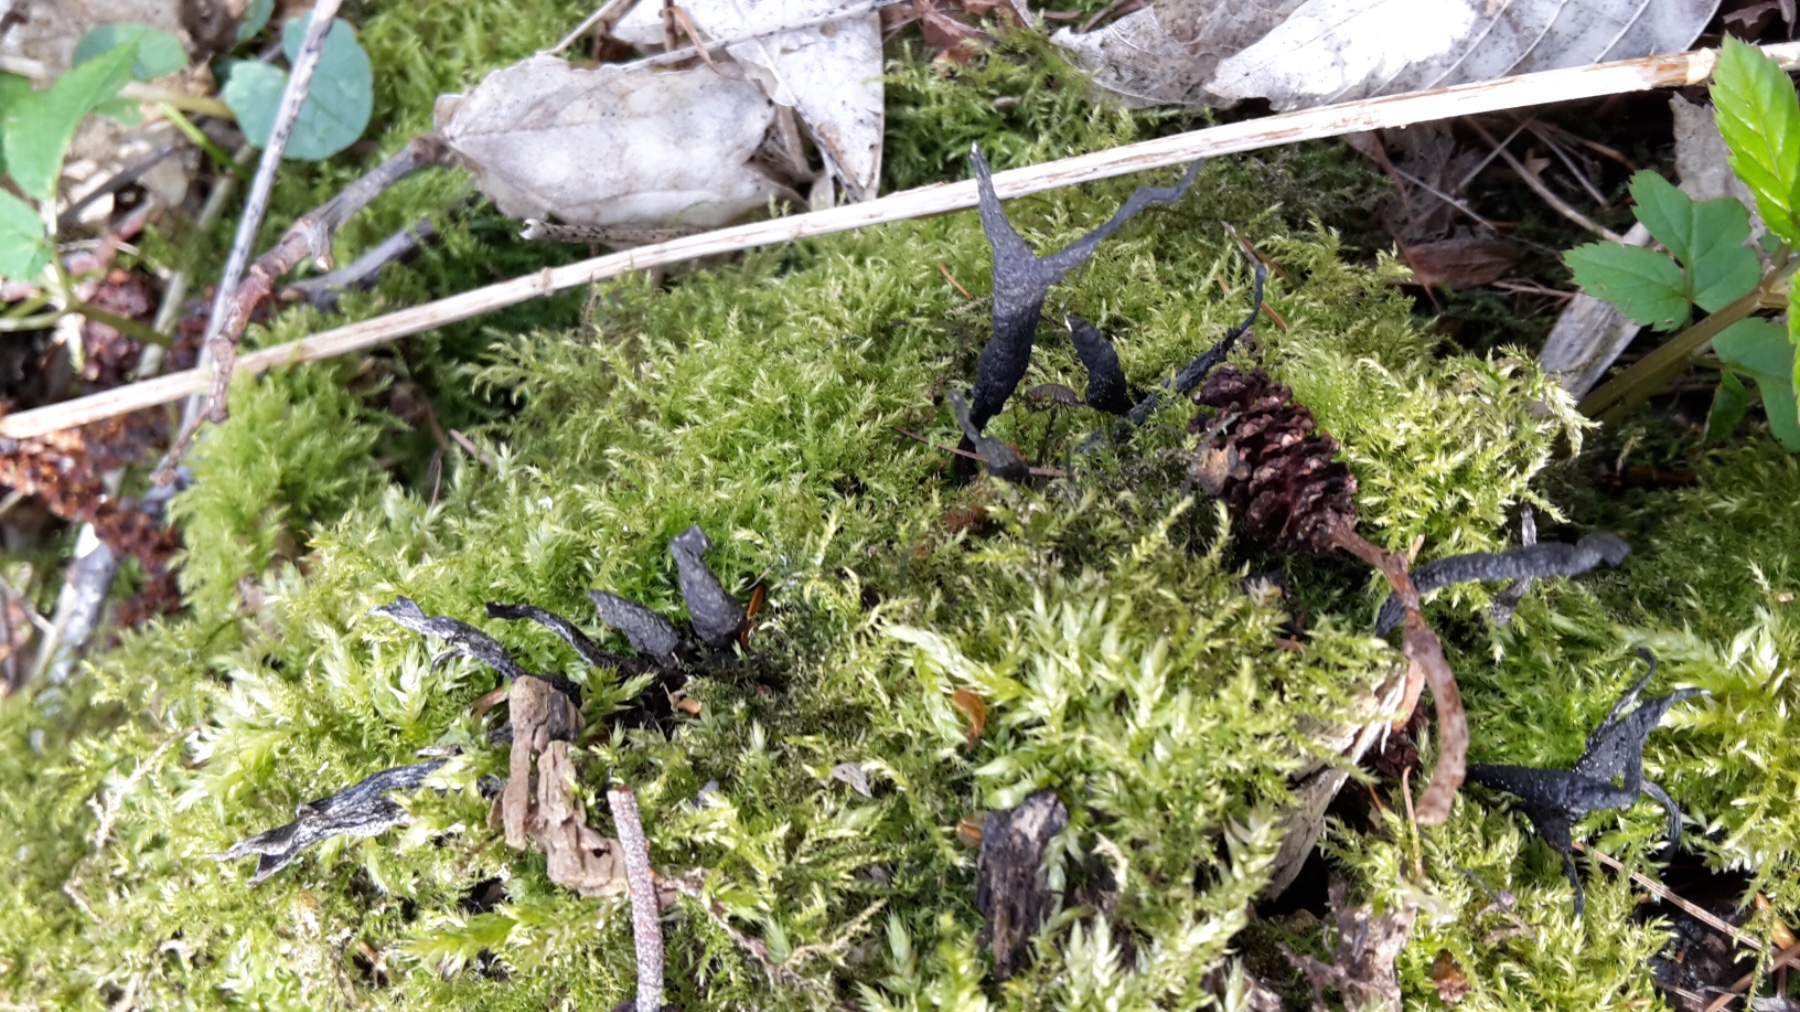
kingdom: Fungi
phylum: Ascomycota
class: Sordariomycetes
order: Xylariales
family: Xylariaceae
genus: Xylaria
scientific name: Xylaria hypoxylon
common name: grenet stødsvamp
